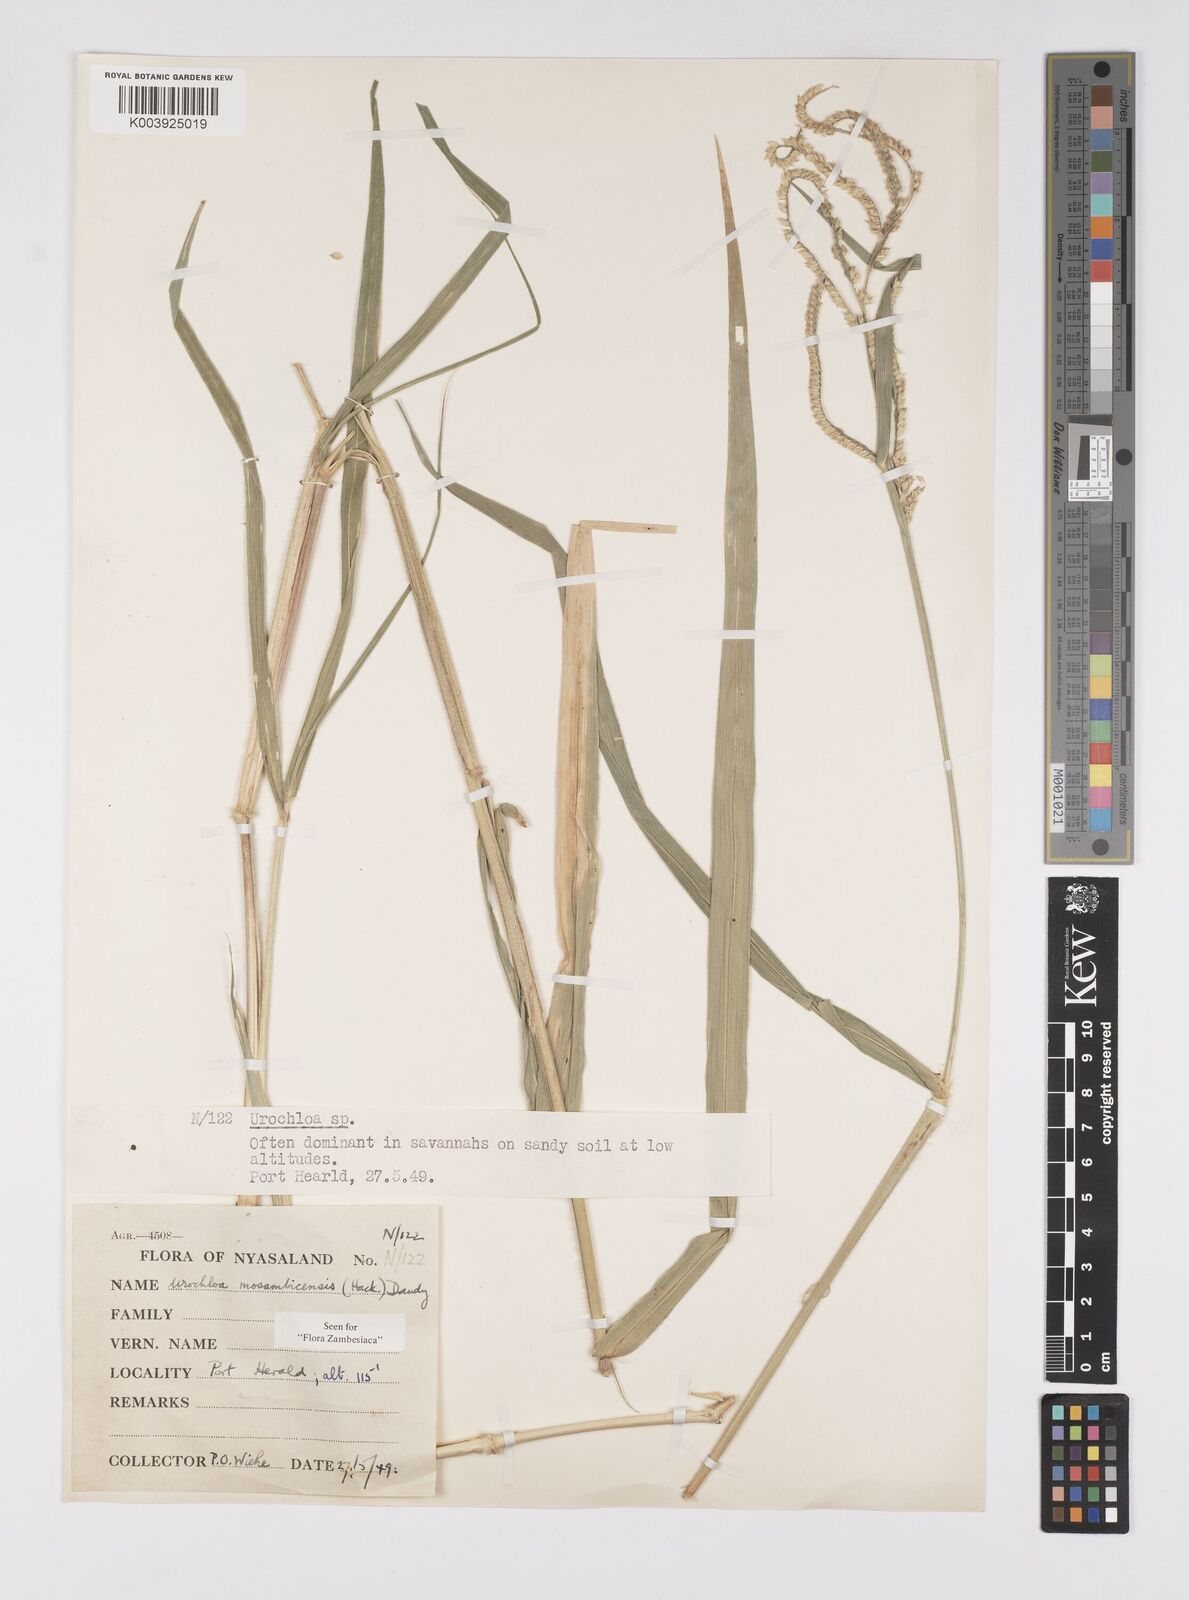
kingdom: Plantae
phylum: Tracheophyta
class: Liliopsida
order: Poales
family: Poaceae
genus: Urochloa
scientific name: Urochloa trichopus
